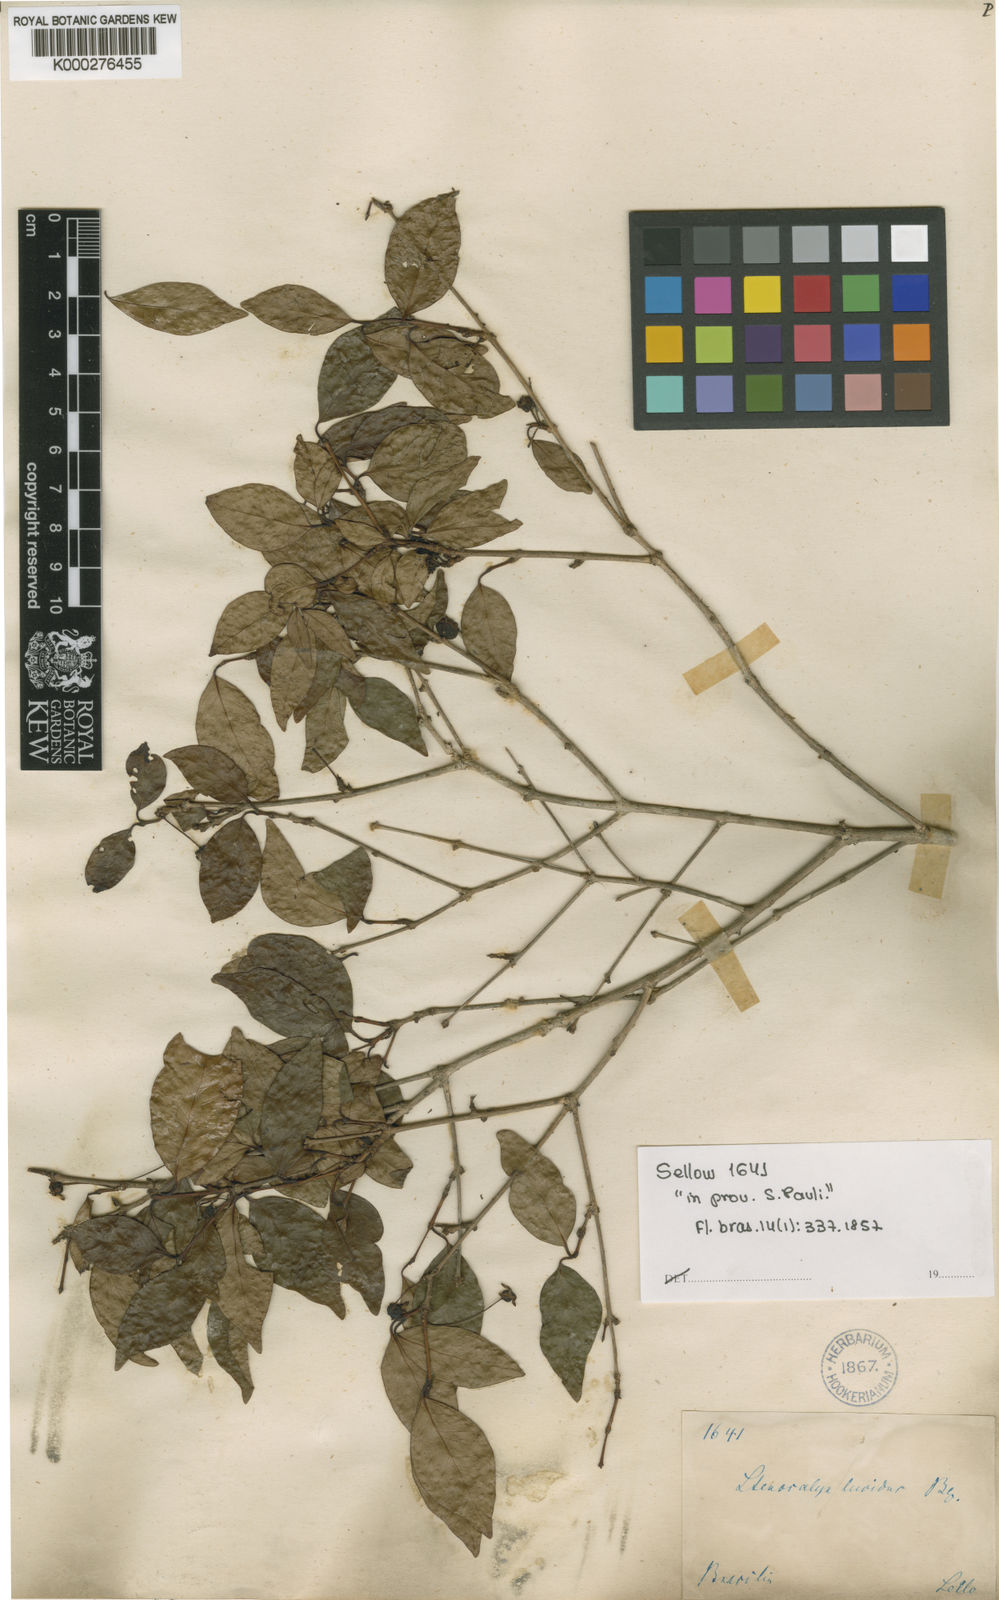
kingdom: Plantae
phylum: Tracheophyta
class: Magnoliopsida
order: Myrtales
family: Myrtaceae
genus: Eugenia
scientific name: Eugenia uniflora
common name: Surinam cherry
